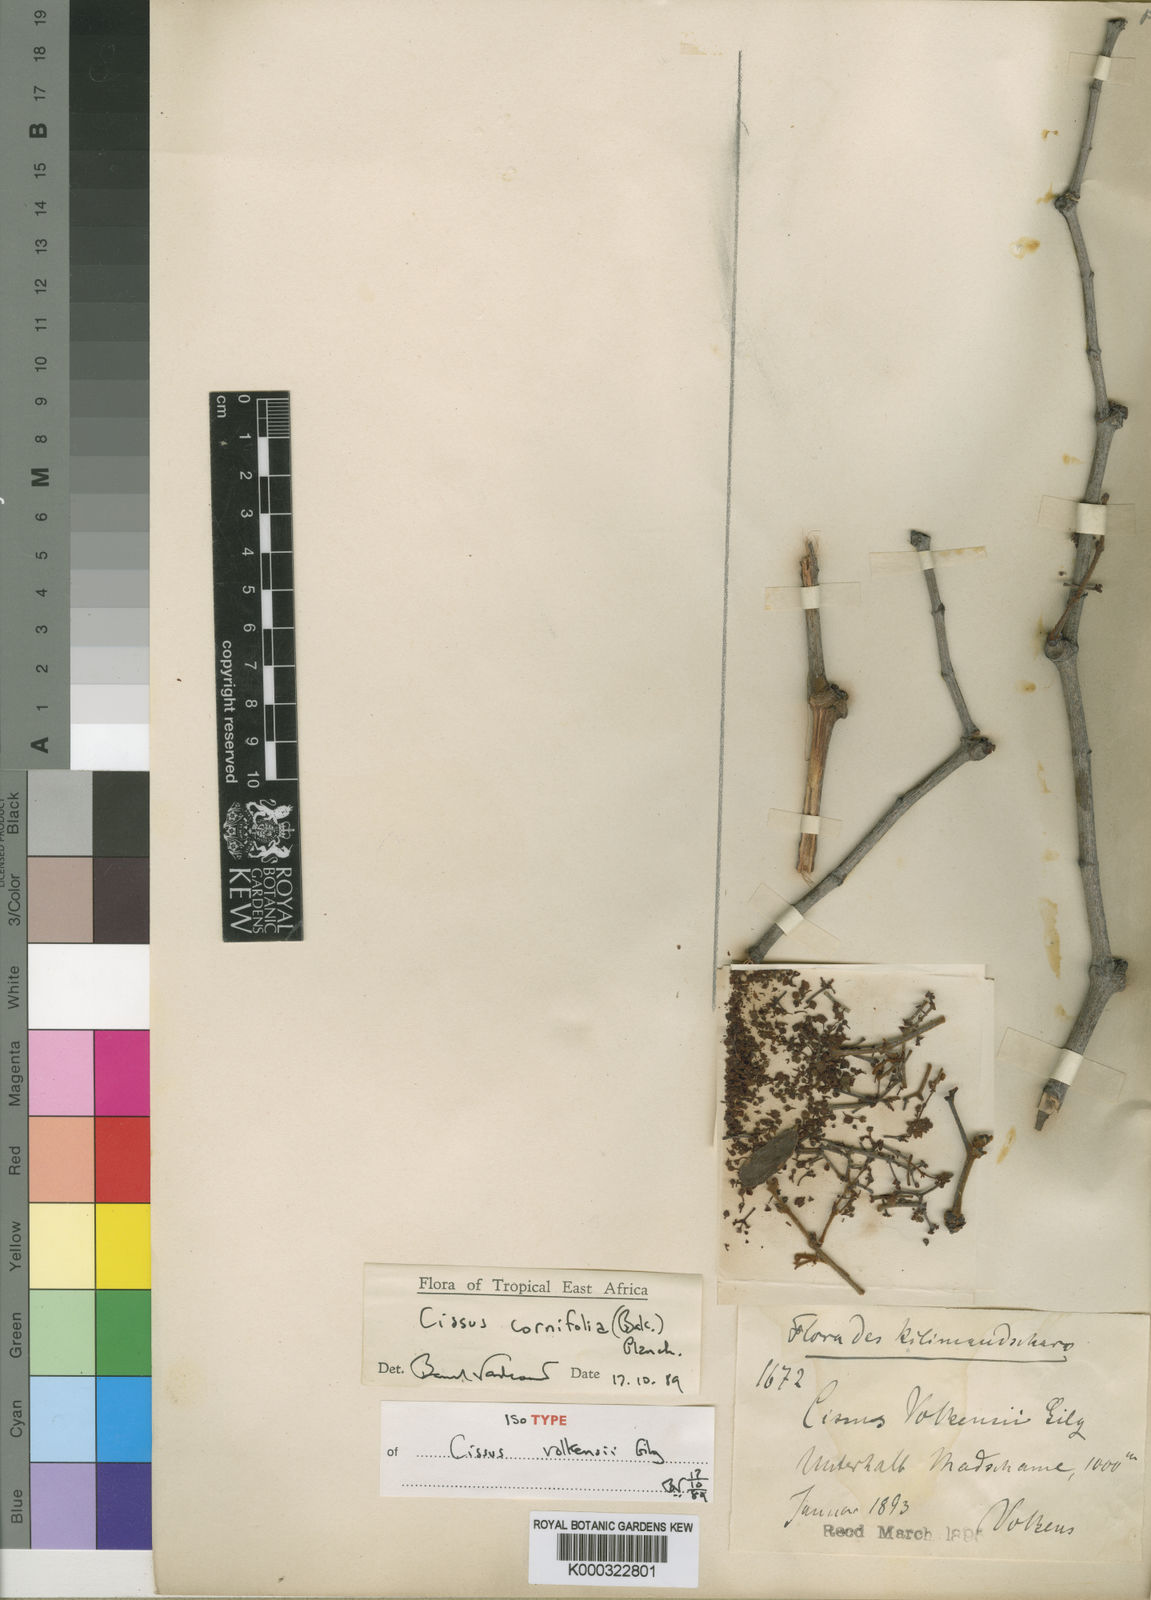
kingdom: Plantae
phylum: Tracheophyta
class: Magnoliopsida
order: Vitales
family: Vitaceae
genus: Cissus
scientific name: Cissus cornifolia
